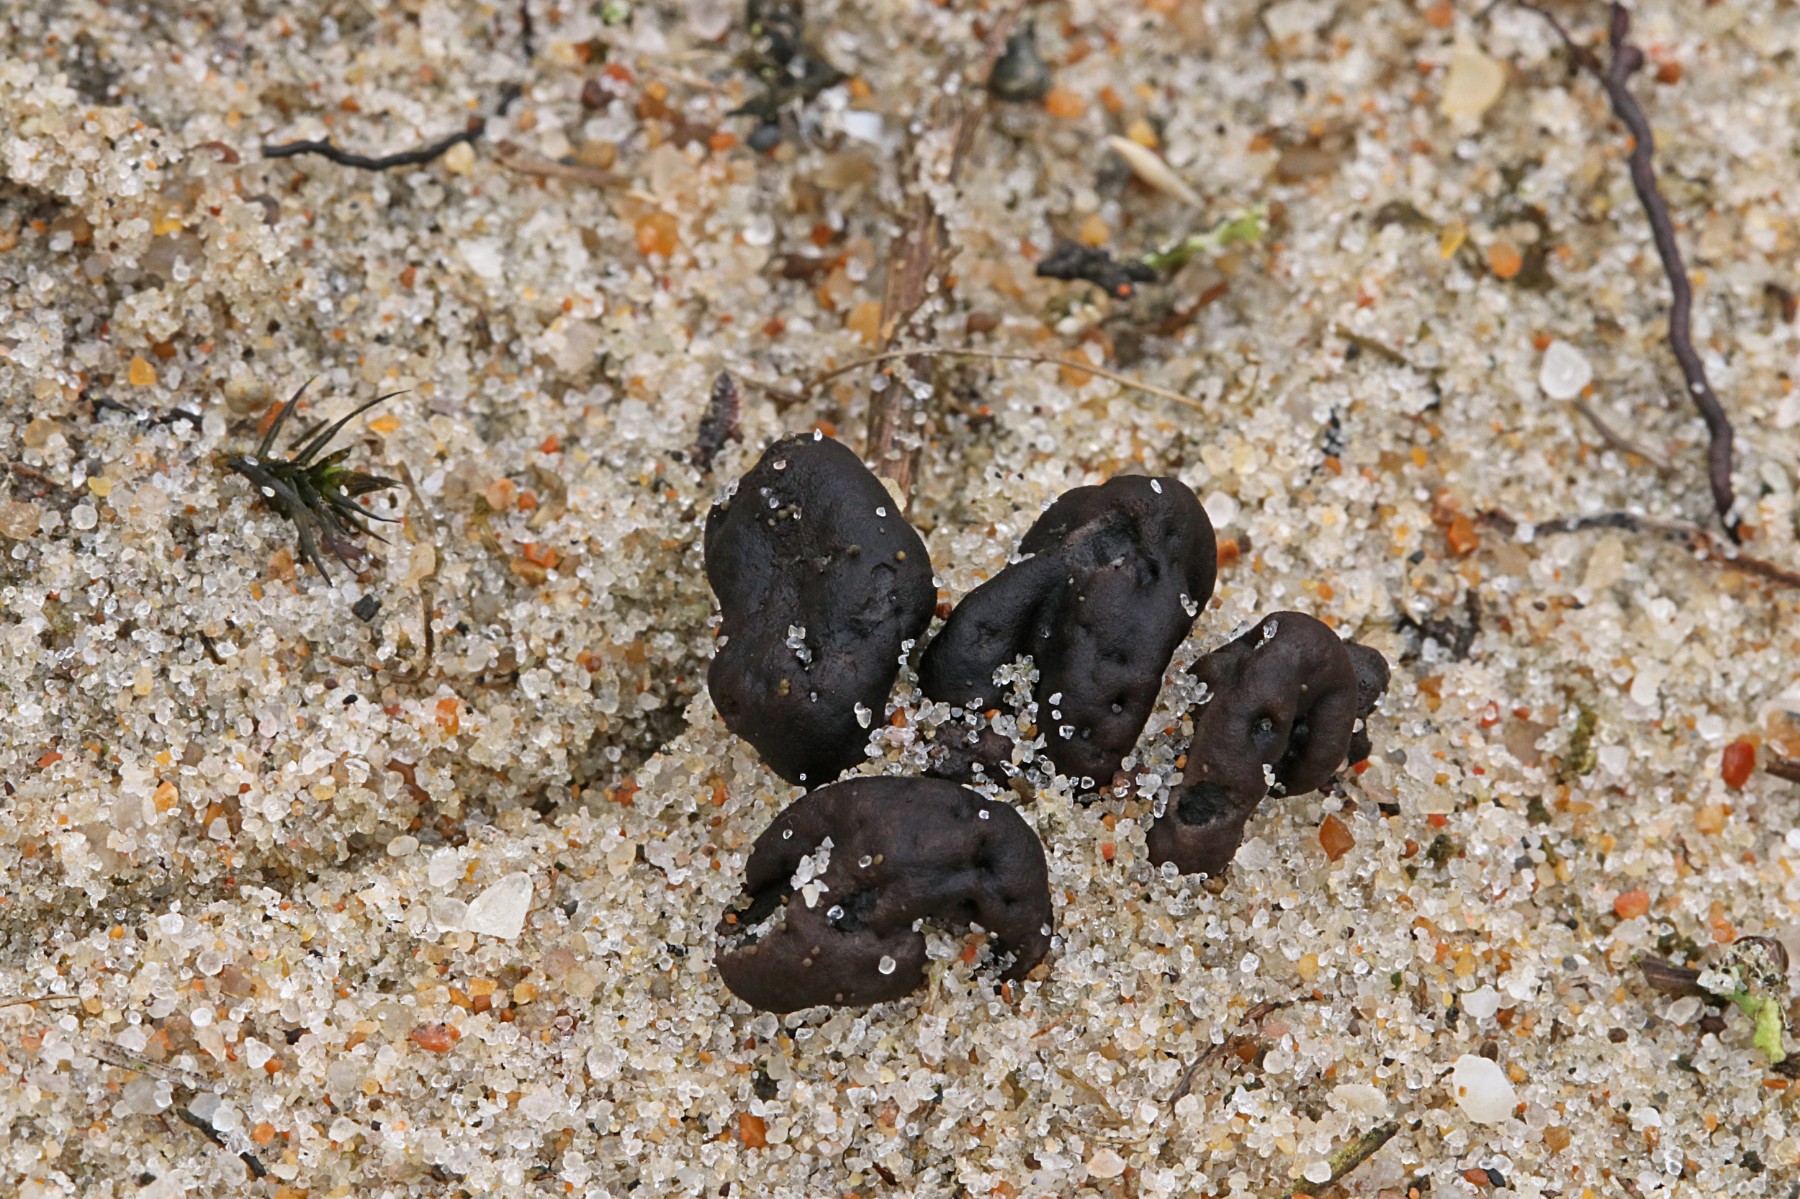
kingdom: Fungi
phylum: Ascomycota
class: Geoglossomycetes
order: Geoglossales
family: Geoglossaceae
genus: Sabuloglossum
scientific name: Sabuloglossum arenarium
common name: klit-jordtunge
